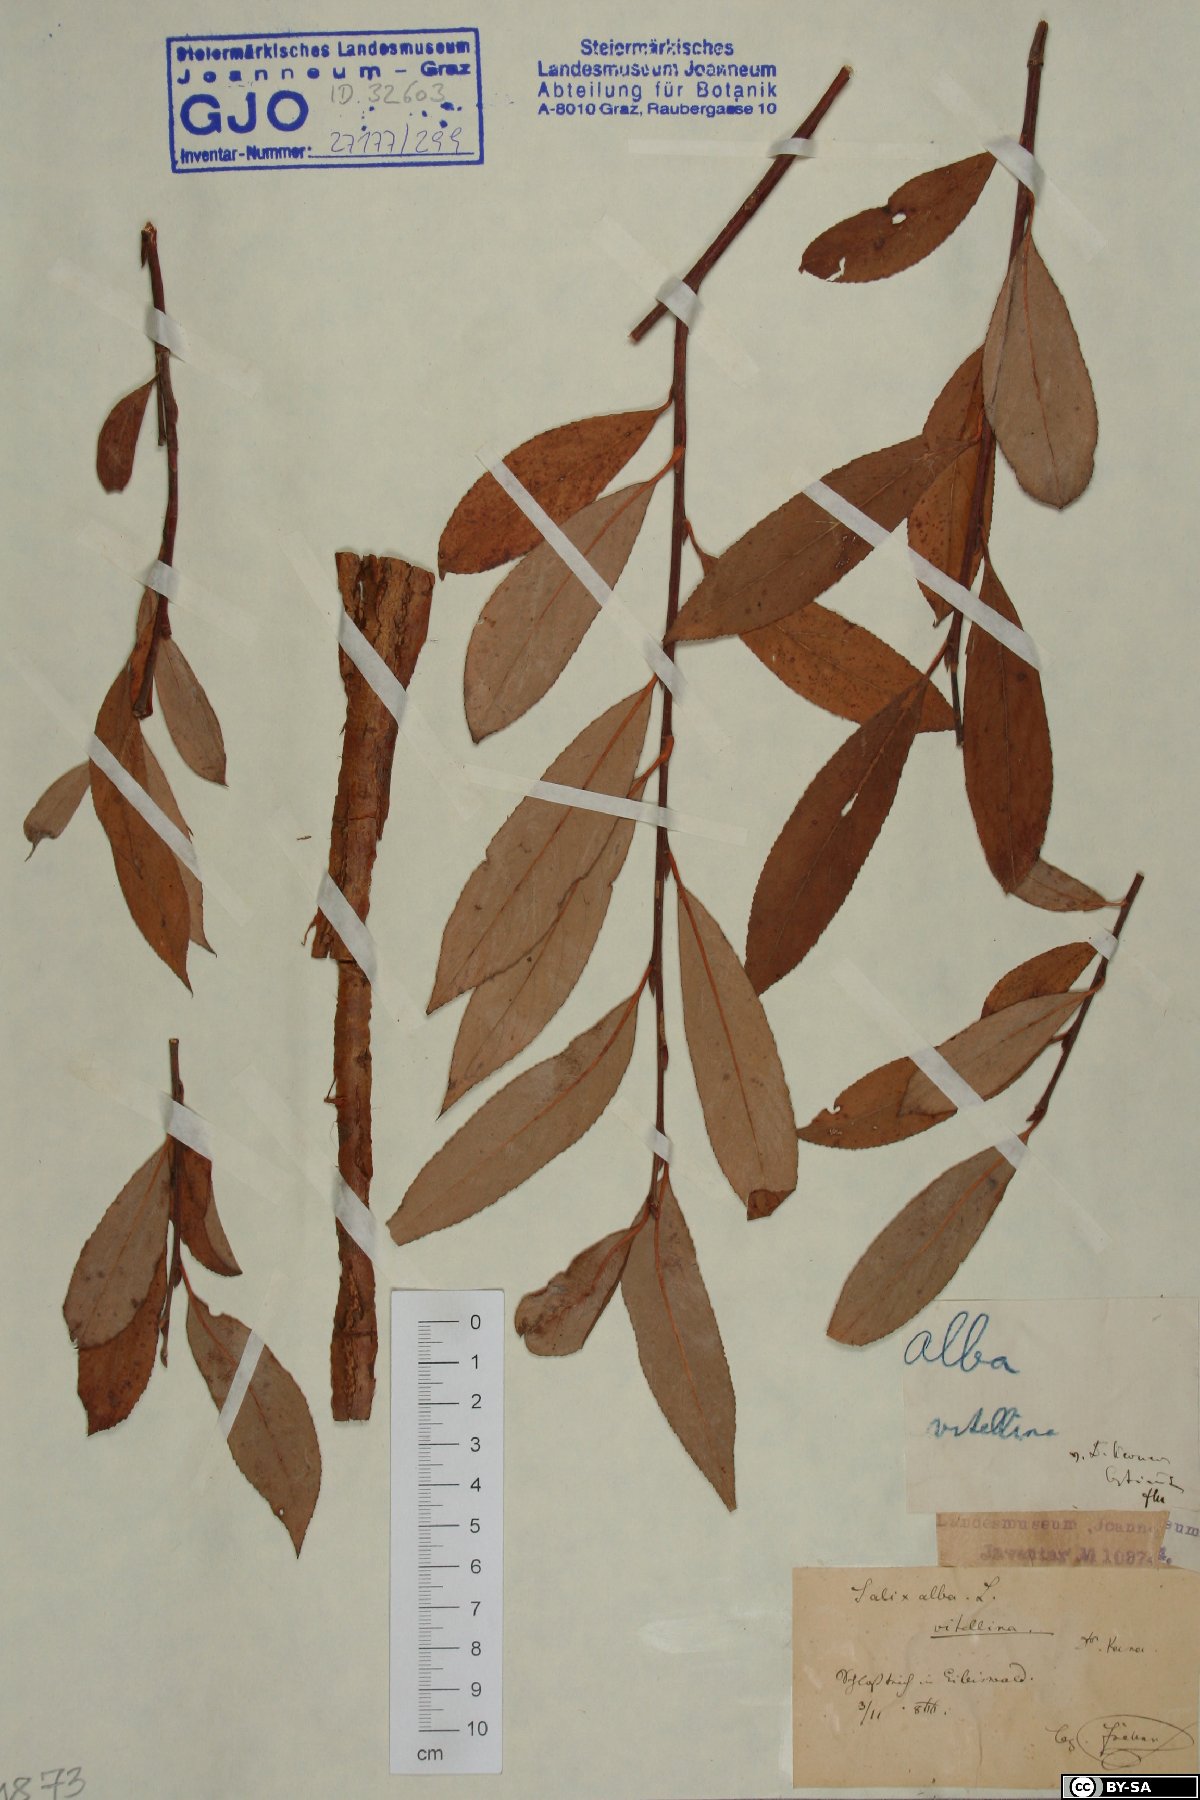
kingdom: Plantae
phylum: Tracheophyta
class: Magnoliopsida
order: Malpighiales
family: Salicaceae
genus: Salix
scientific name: Salix alba
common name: White willow
